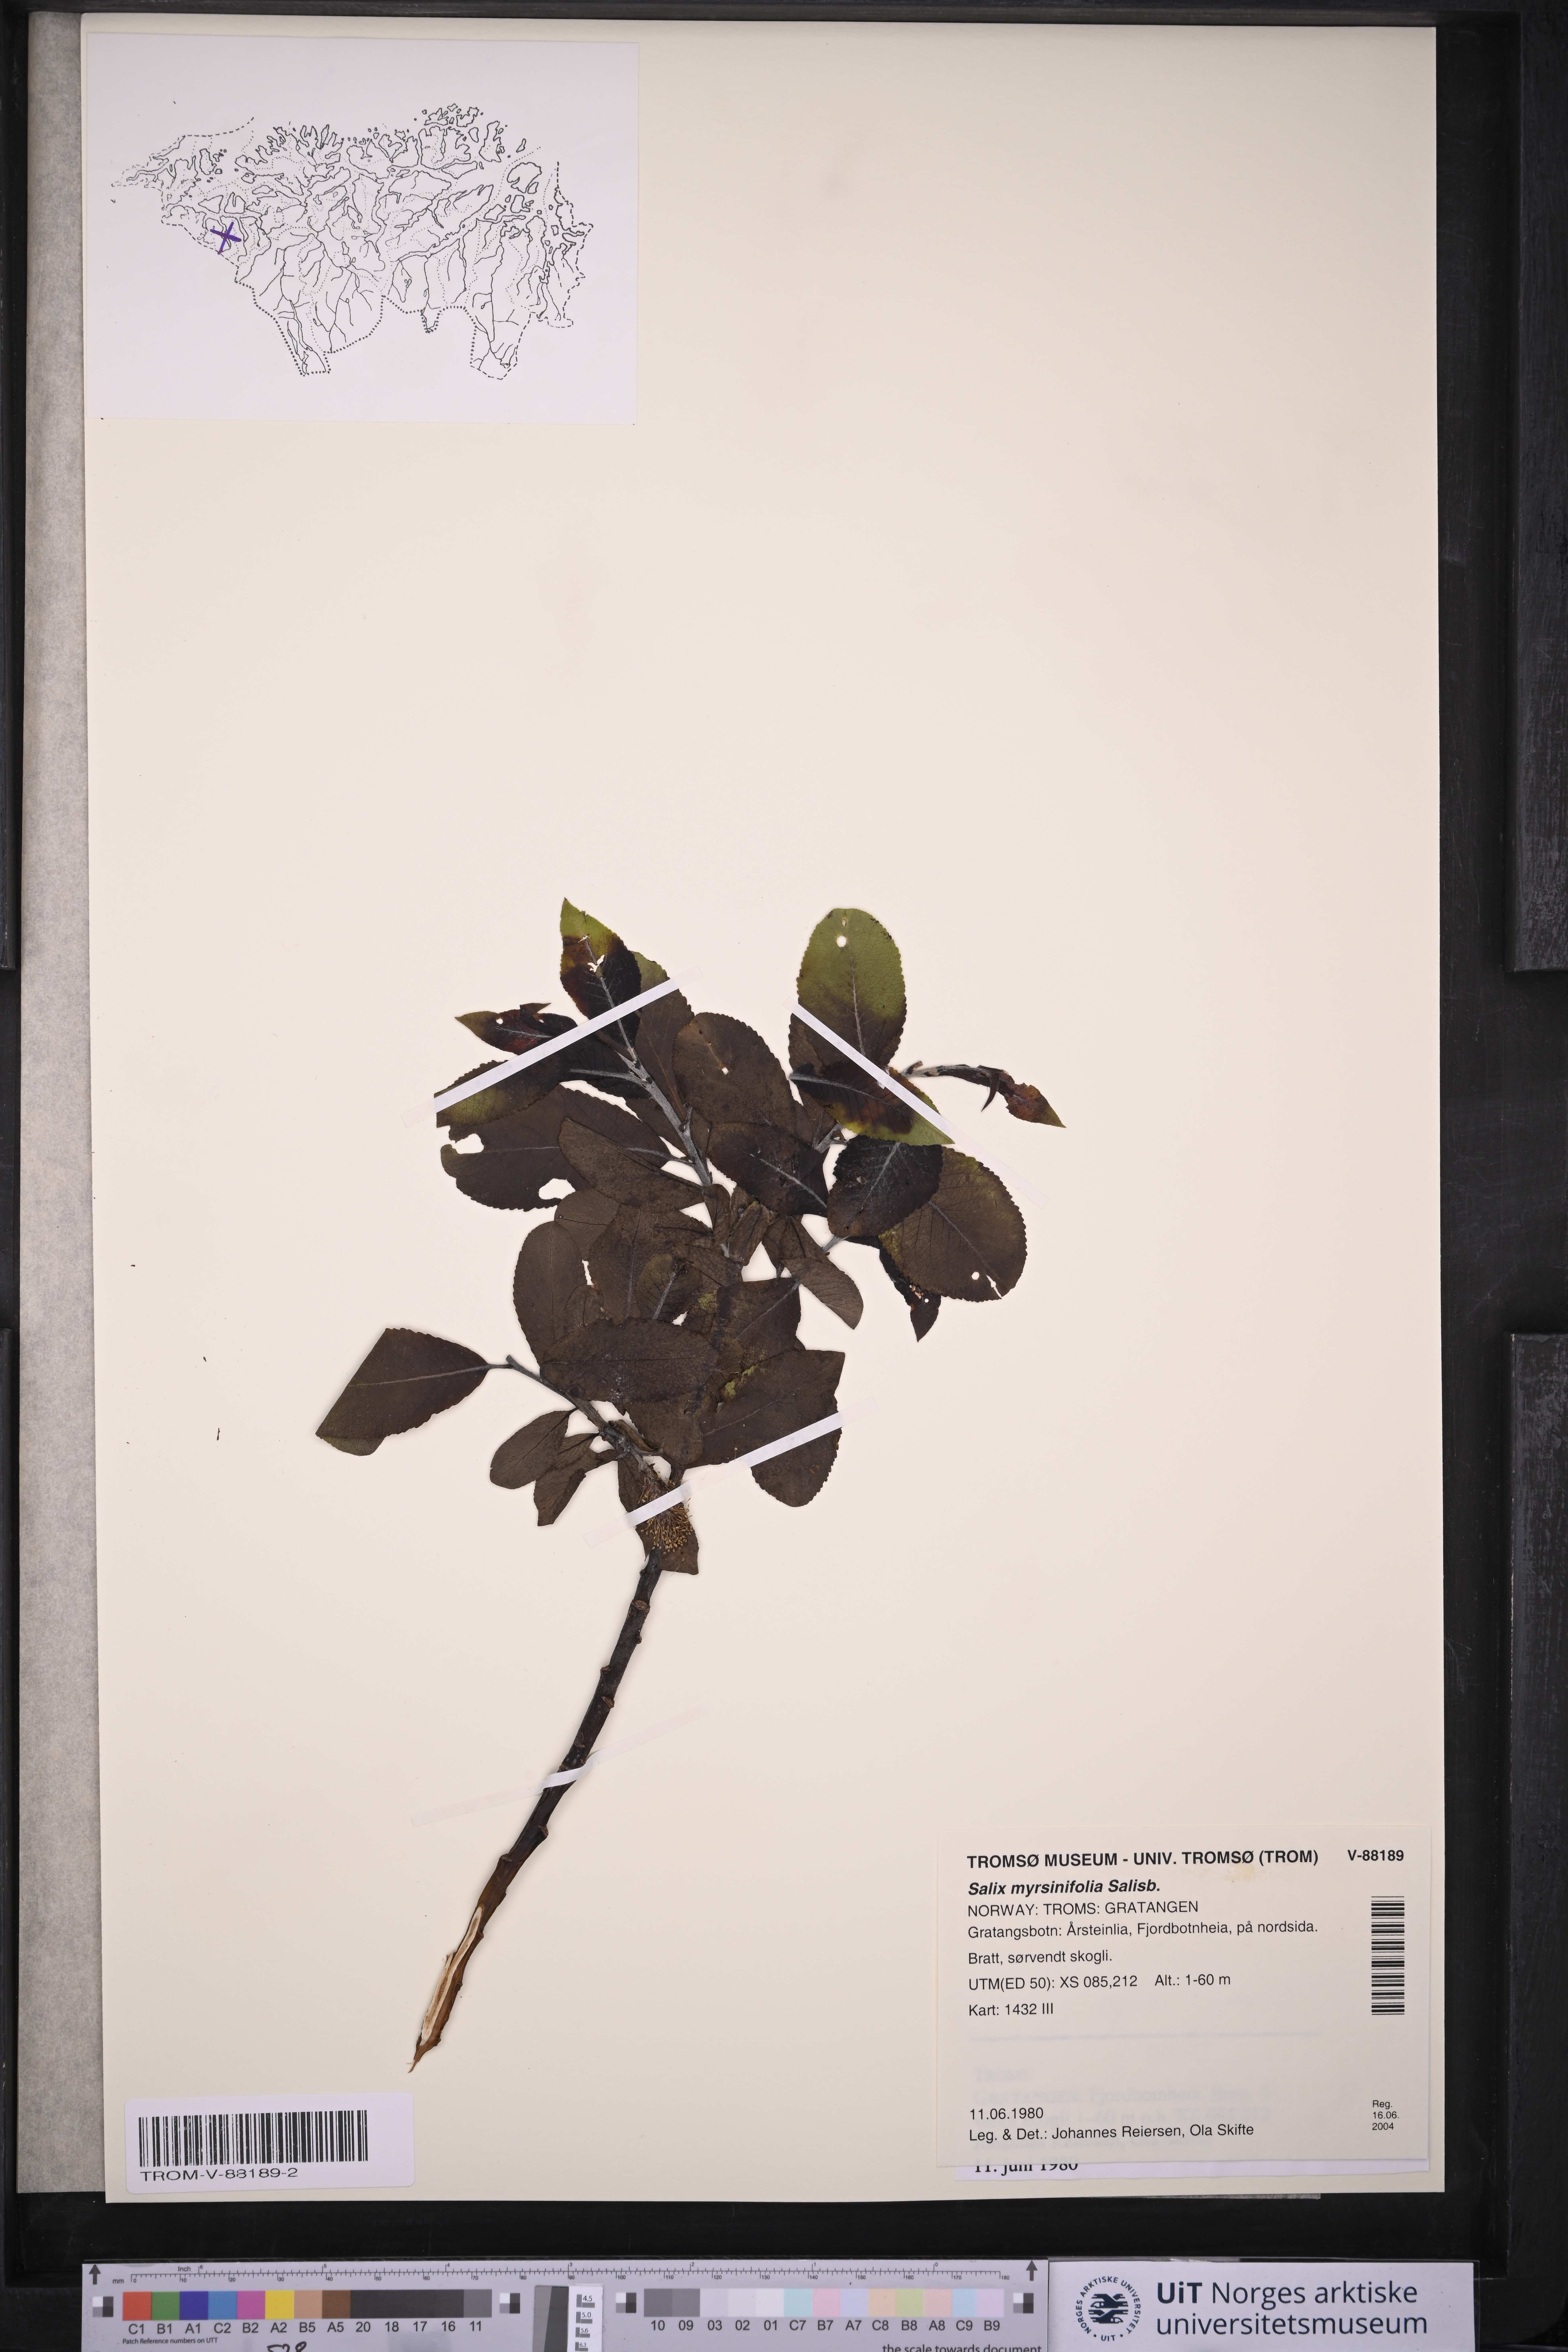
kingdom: Plantae
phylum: Tracheophyta
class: Magnoliopsida
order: Malpighiales
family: Salicaceae
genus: Salix
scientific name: Salix myrsinifolia
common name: Dark-leaved willow
